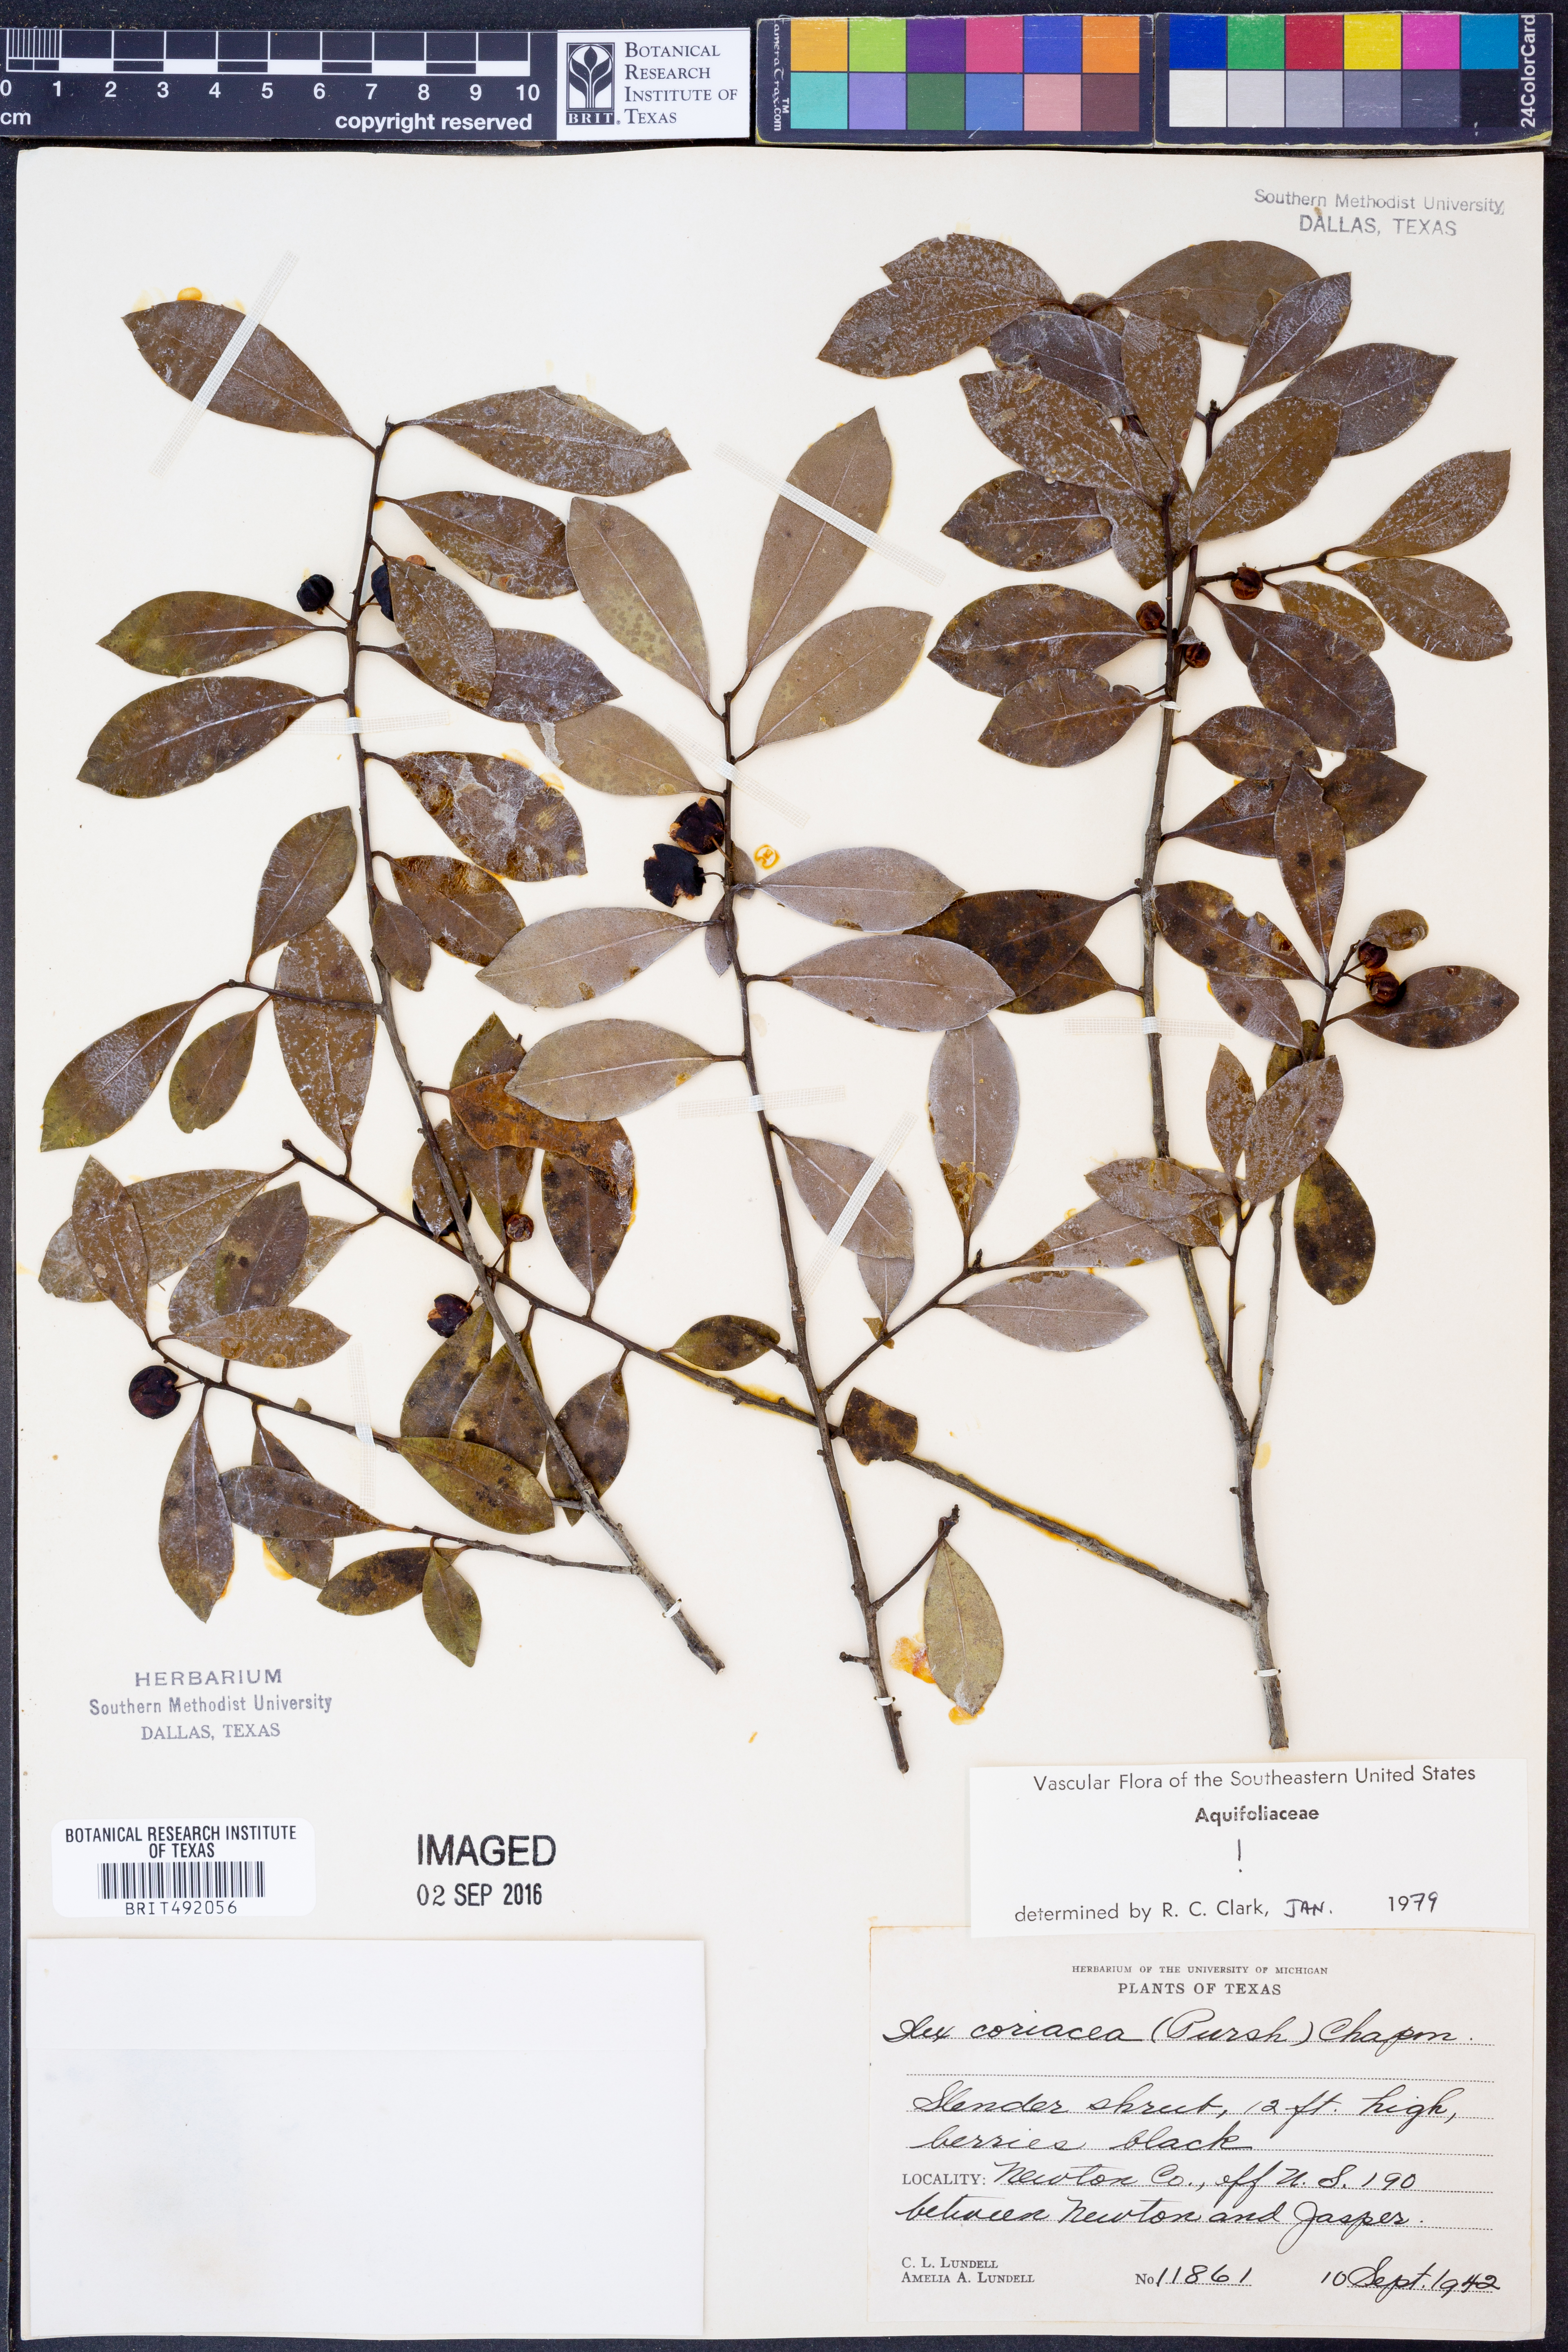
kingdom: Plantae
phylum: Tracheophyta
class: Magnoliopsida
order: Aquifoliales
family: Aquifoliaceae
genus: Ilex
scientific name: Ilex coriacea
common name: Sweet gallberry
